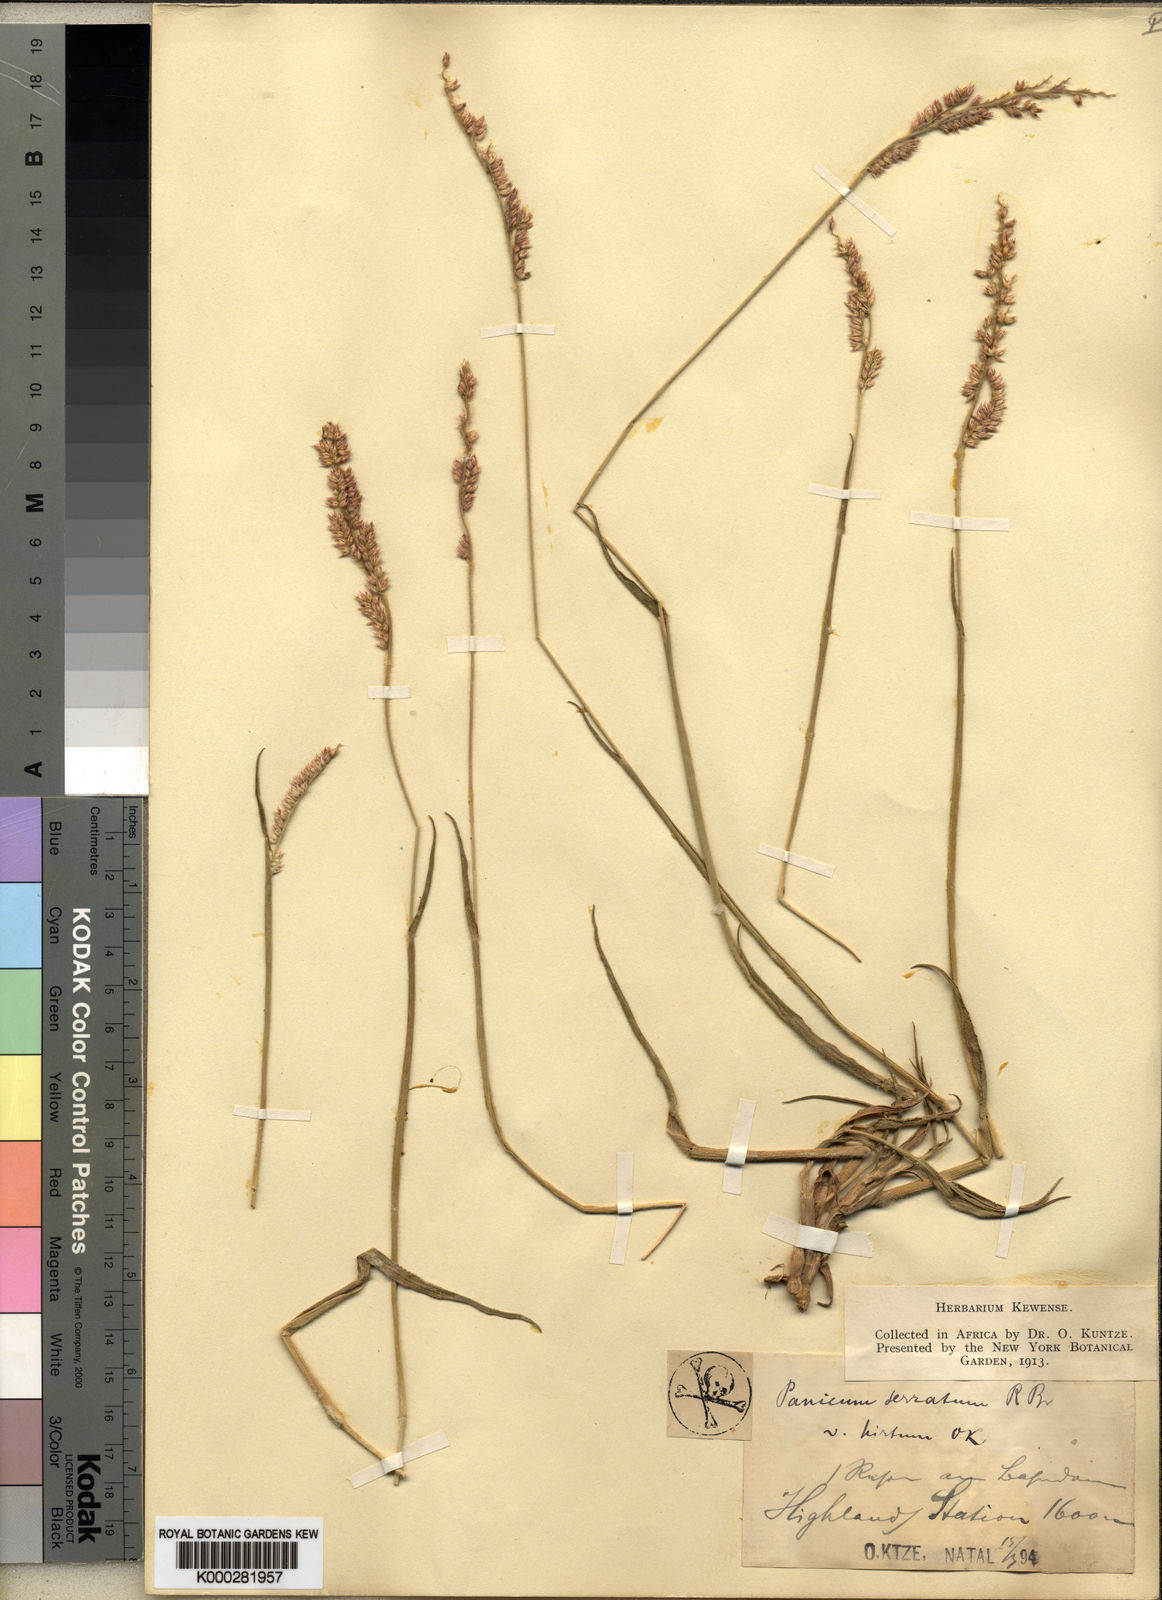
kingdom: Plantae
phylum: Tracheophyta
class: Liliopsida
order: Poales
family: Poaceae
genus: Urochloa
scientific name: Urochloa serrata
